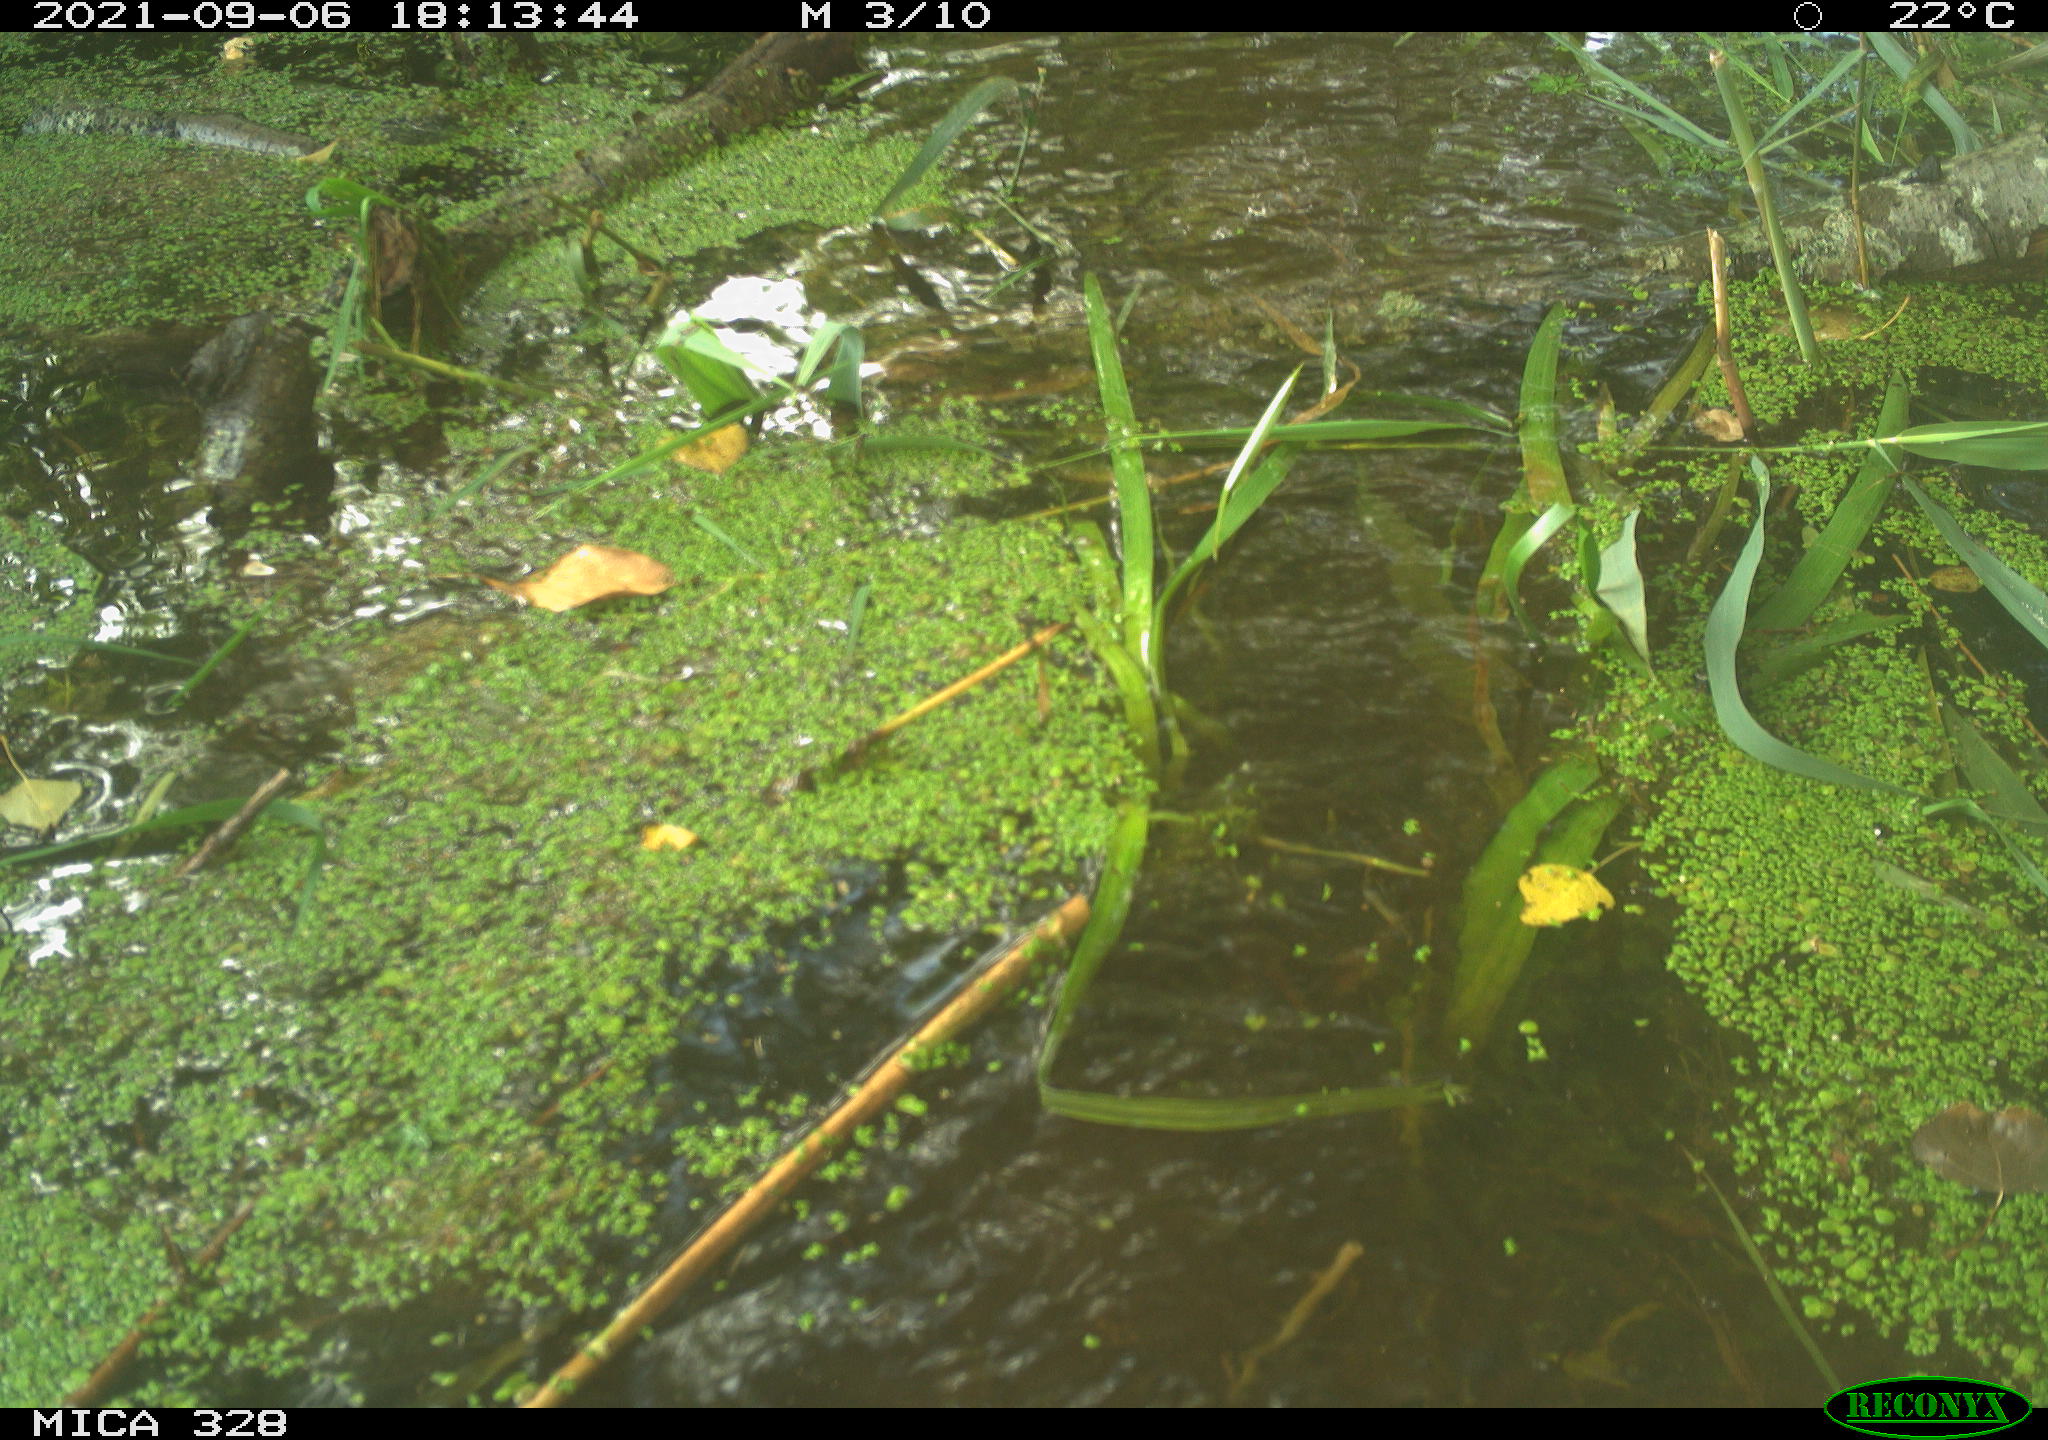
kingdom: Animalia
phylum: Chordata
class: Mammalia
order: Rodentia
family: Cricetidae
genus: Ondatra
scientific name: Ondatra zibethicus
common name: Muskrat
